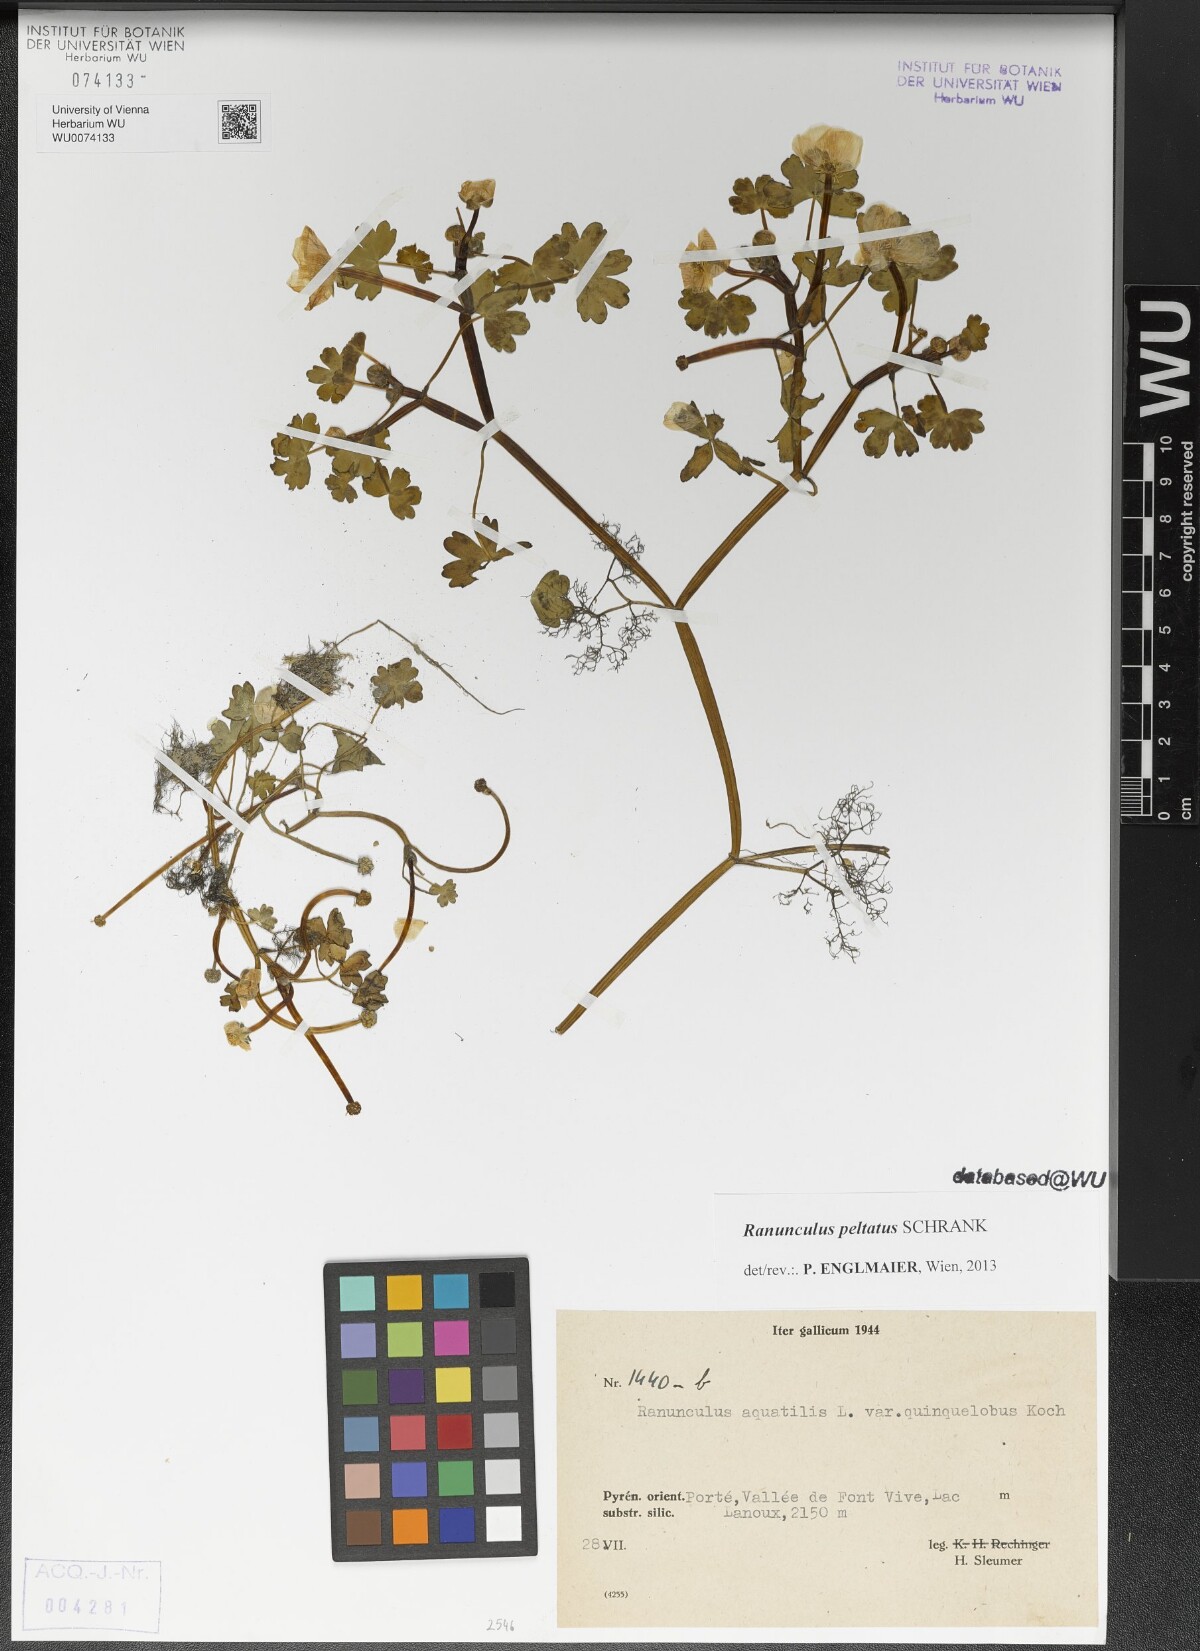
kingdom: Plantae
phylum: Tracheophyta
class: Magnoliopsida
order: Ranunculales
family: Ranunculaceae
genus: Ranunculus
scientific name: Ranunculus peltatus
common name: Pond water-crowfoot
